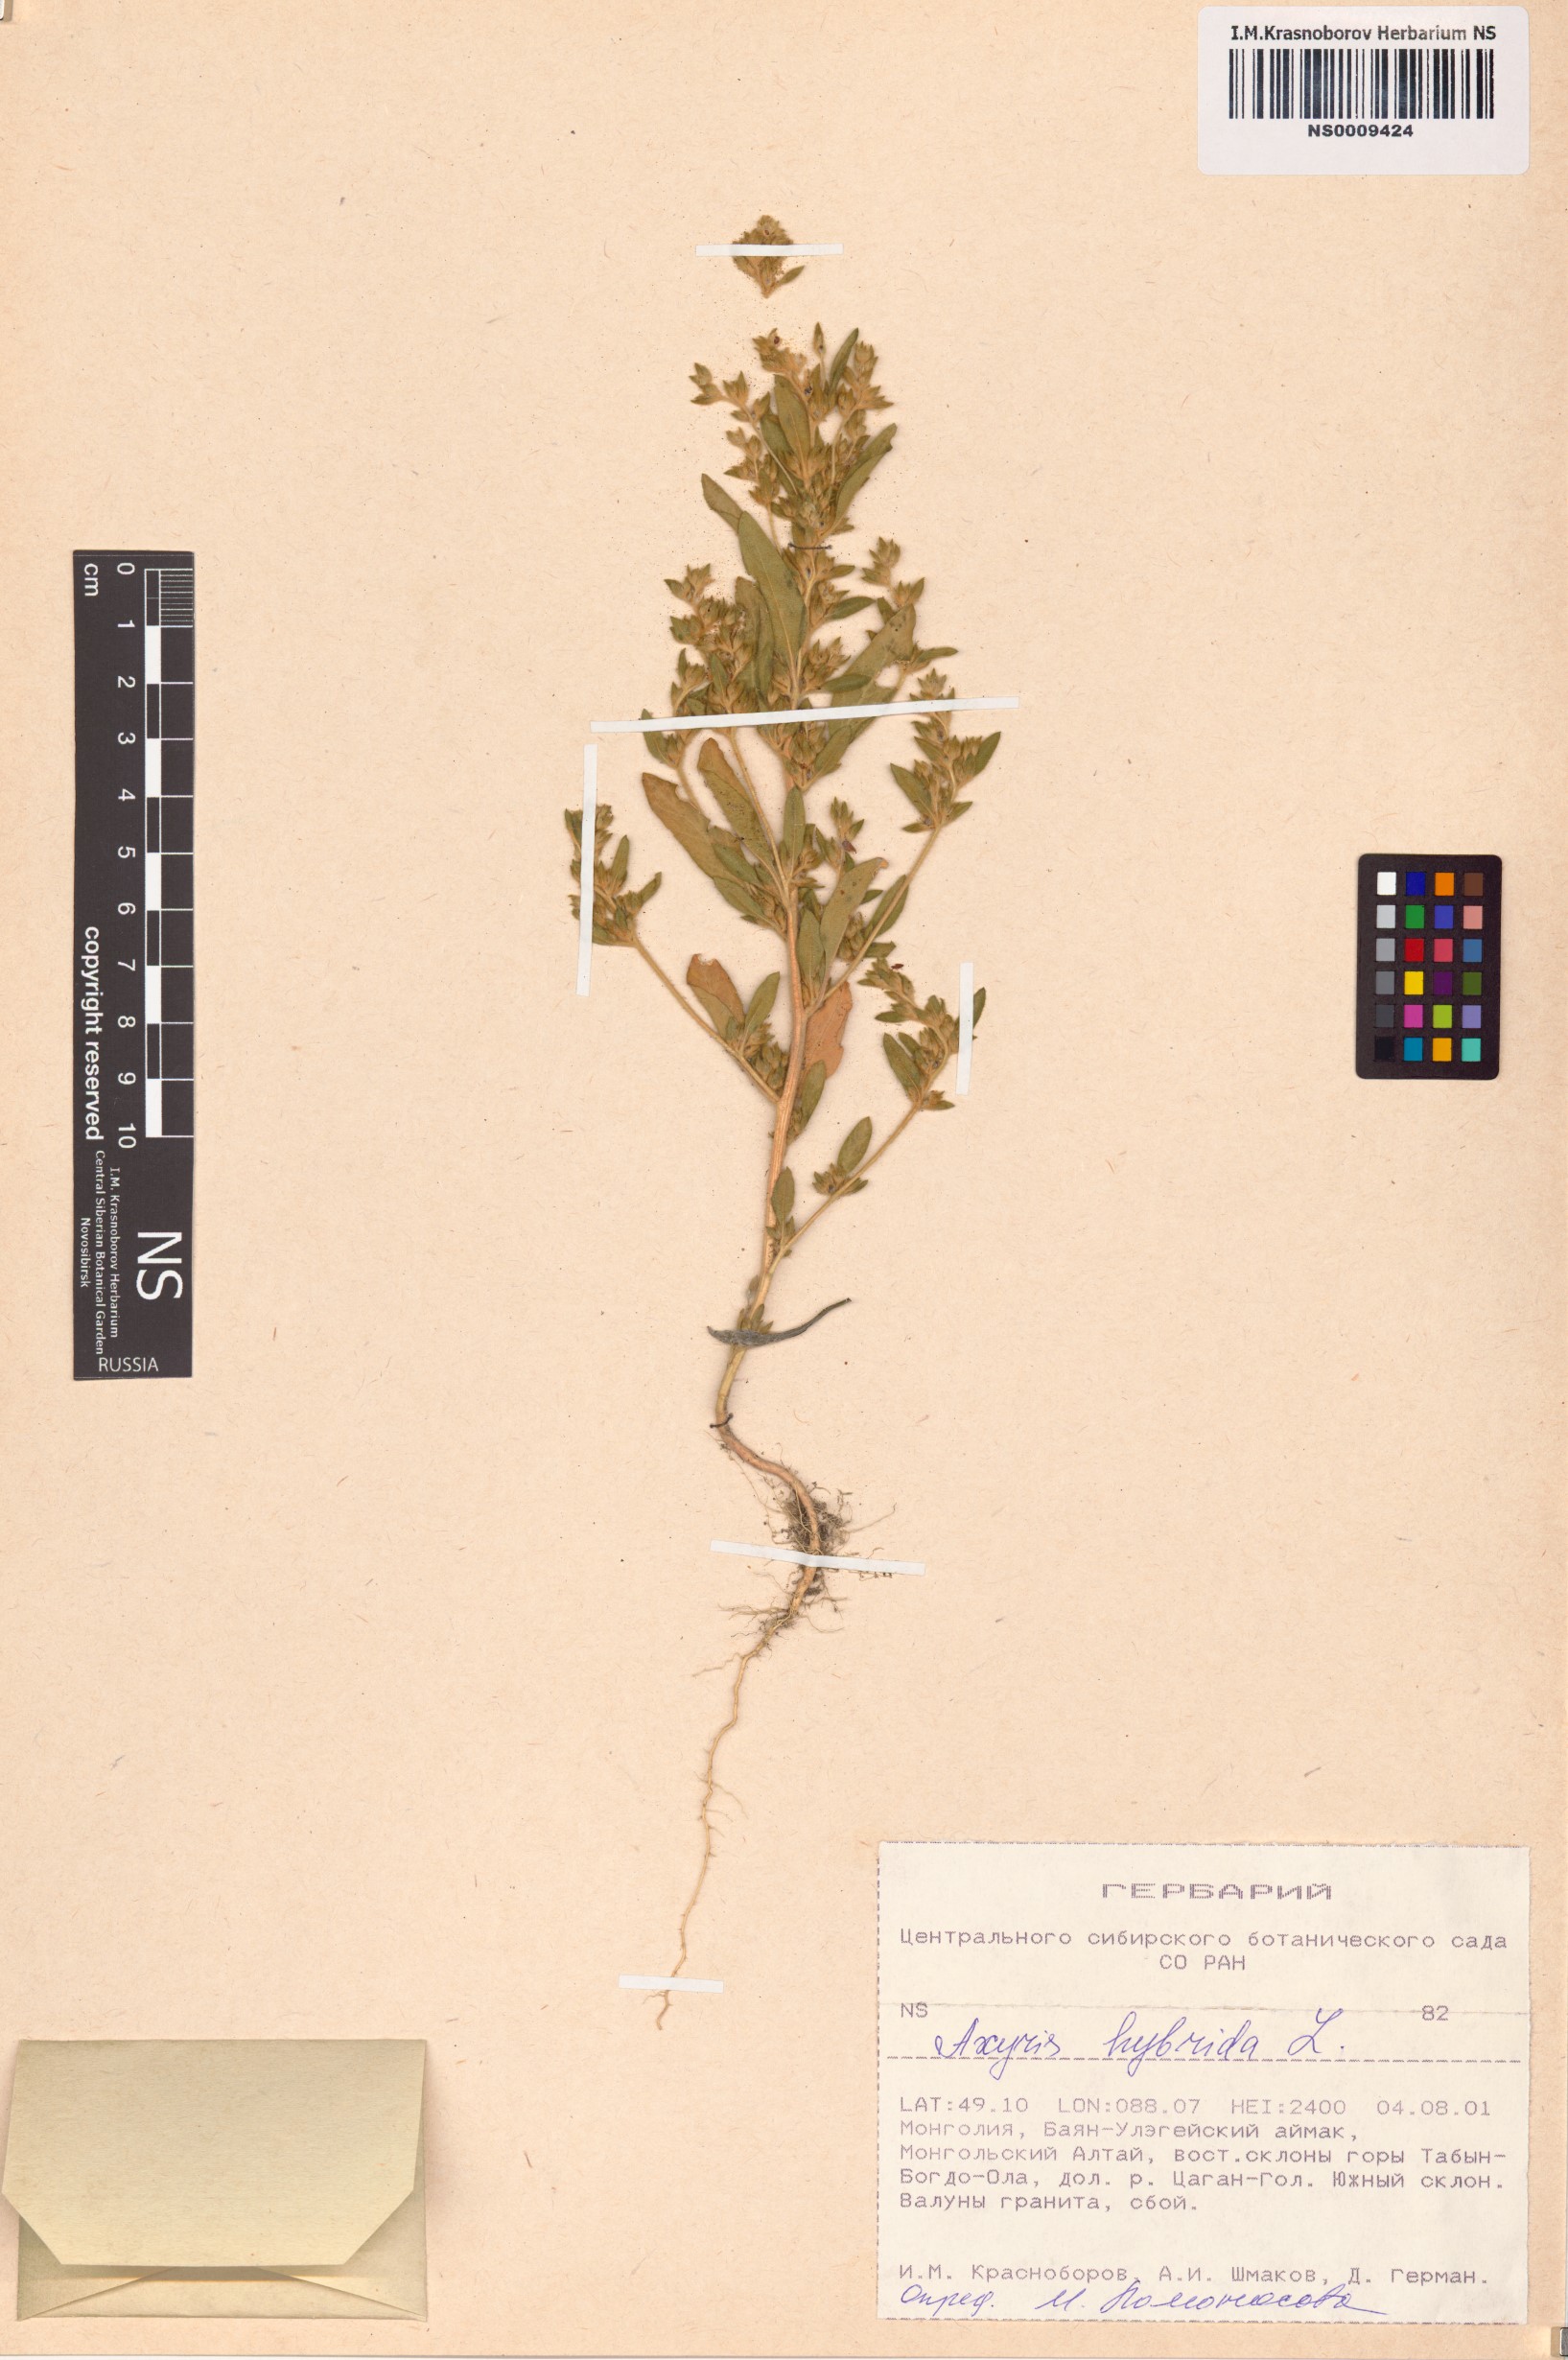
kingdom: Plantae
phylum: Tracheophyta
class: Magnoliopsida
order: Caryophyllales
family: Amaranthaceae
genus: Axyris
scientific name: Axyris hybrida
